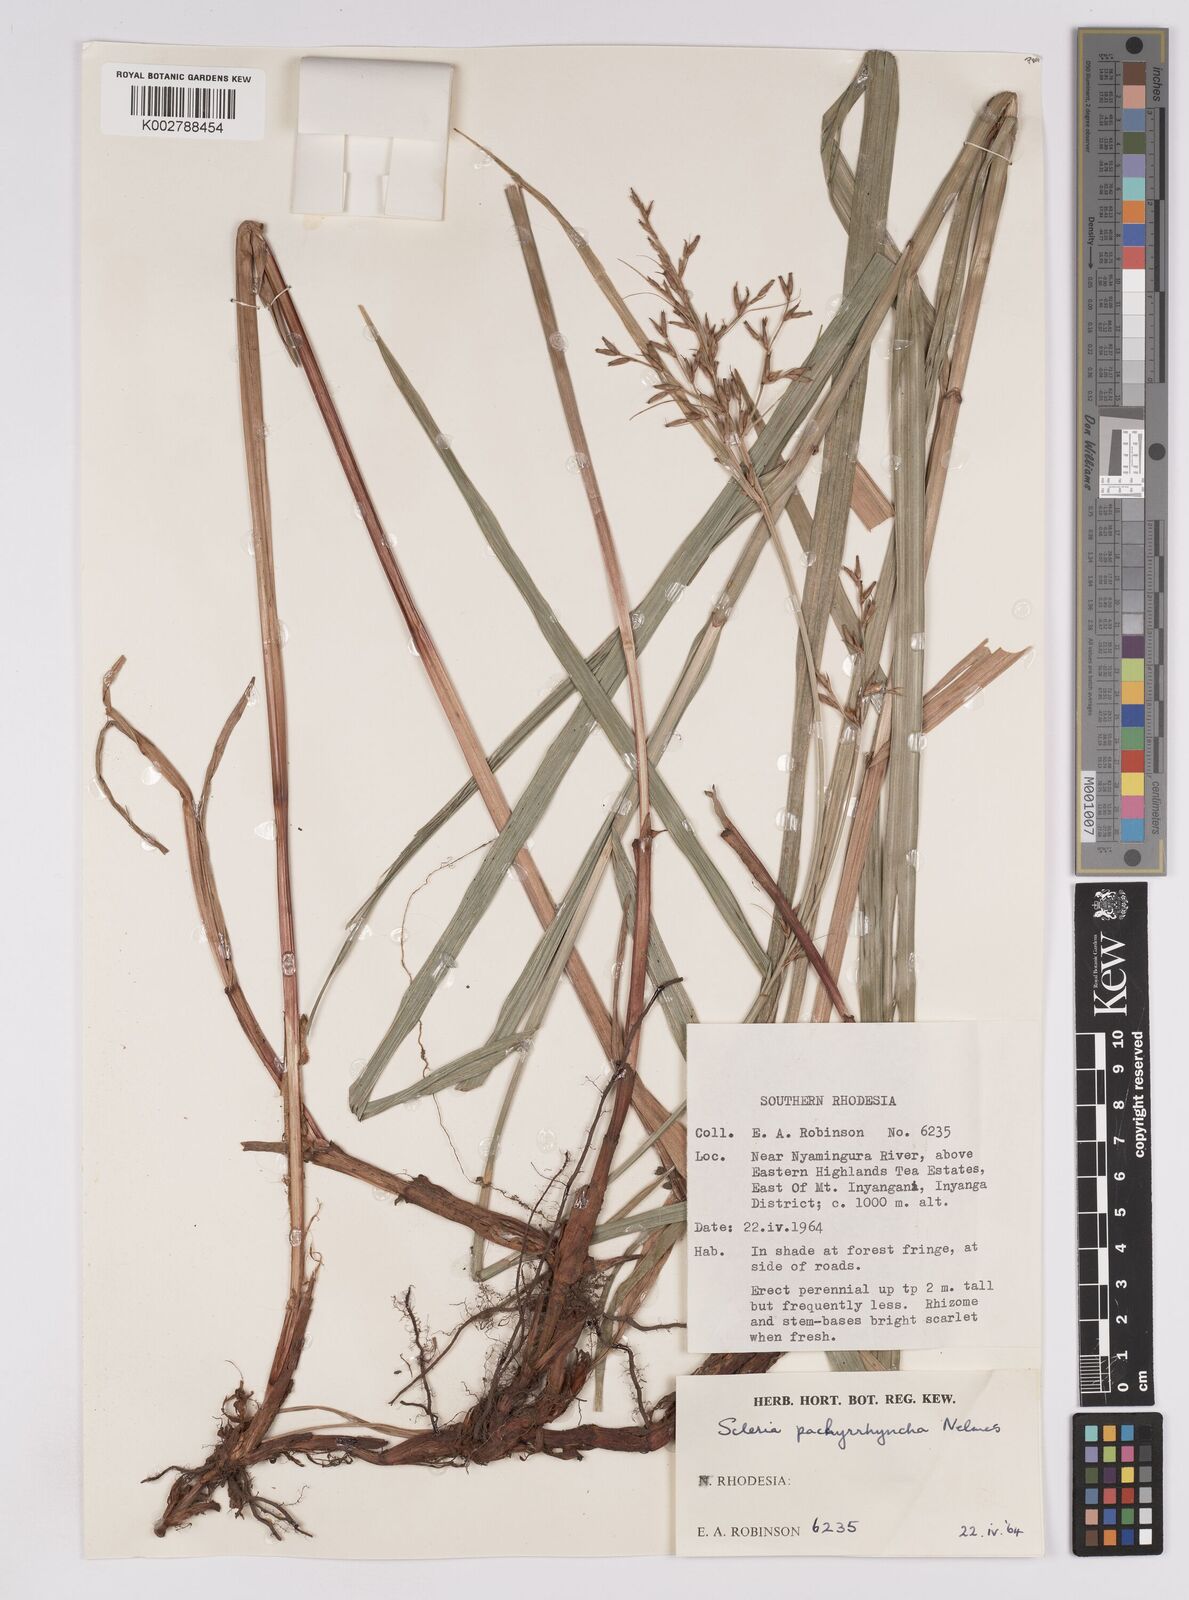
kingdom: Plantae
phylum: Tracheophyta
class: Liliopsida
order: Poales
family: Cyperaceae
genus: Scleria
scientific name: Scleria pachyrrhyncha
